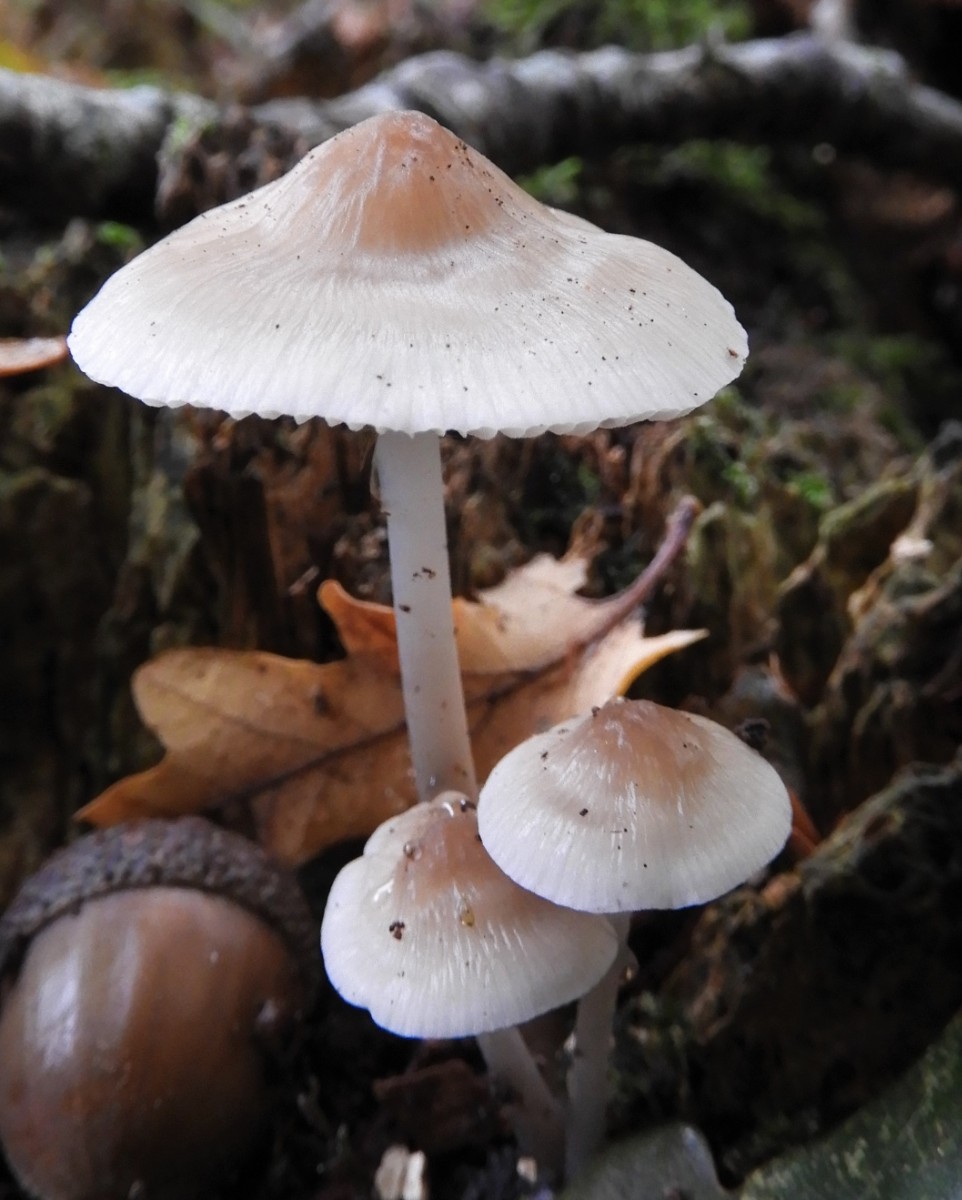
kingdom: Fungi
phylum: Basidiomycota
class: Agaricomycetes
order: Agaricales
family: Mycenaceae
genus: Mycena
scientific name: Mycena galericulata
